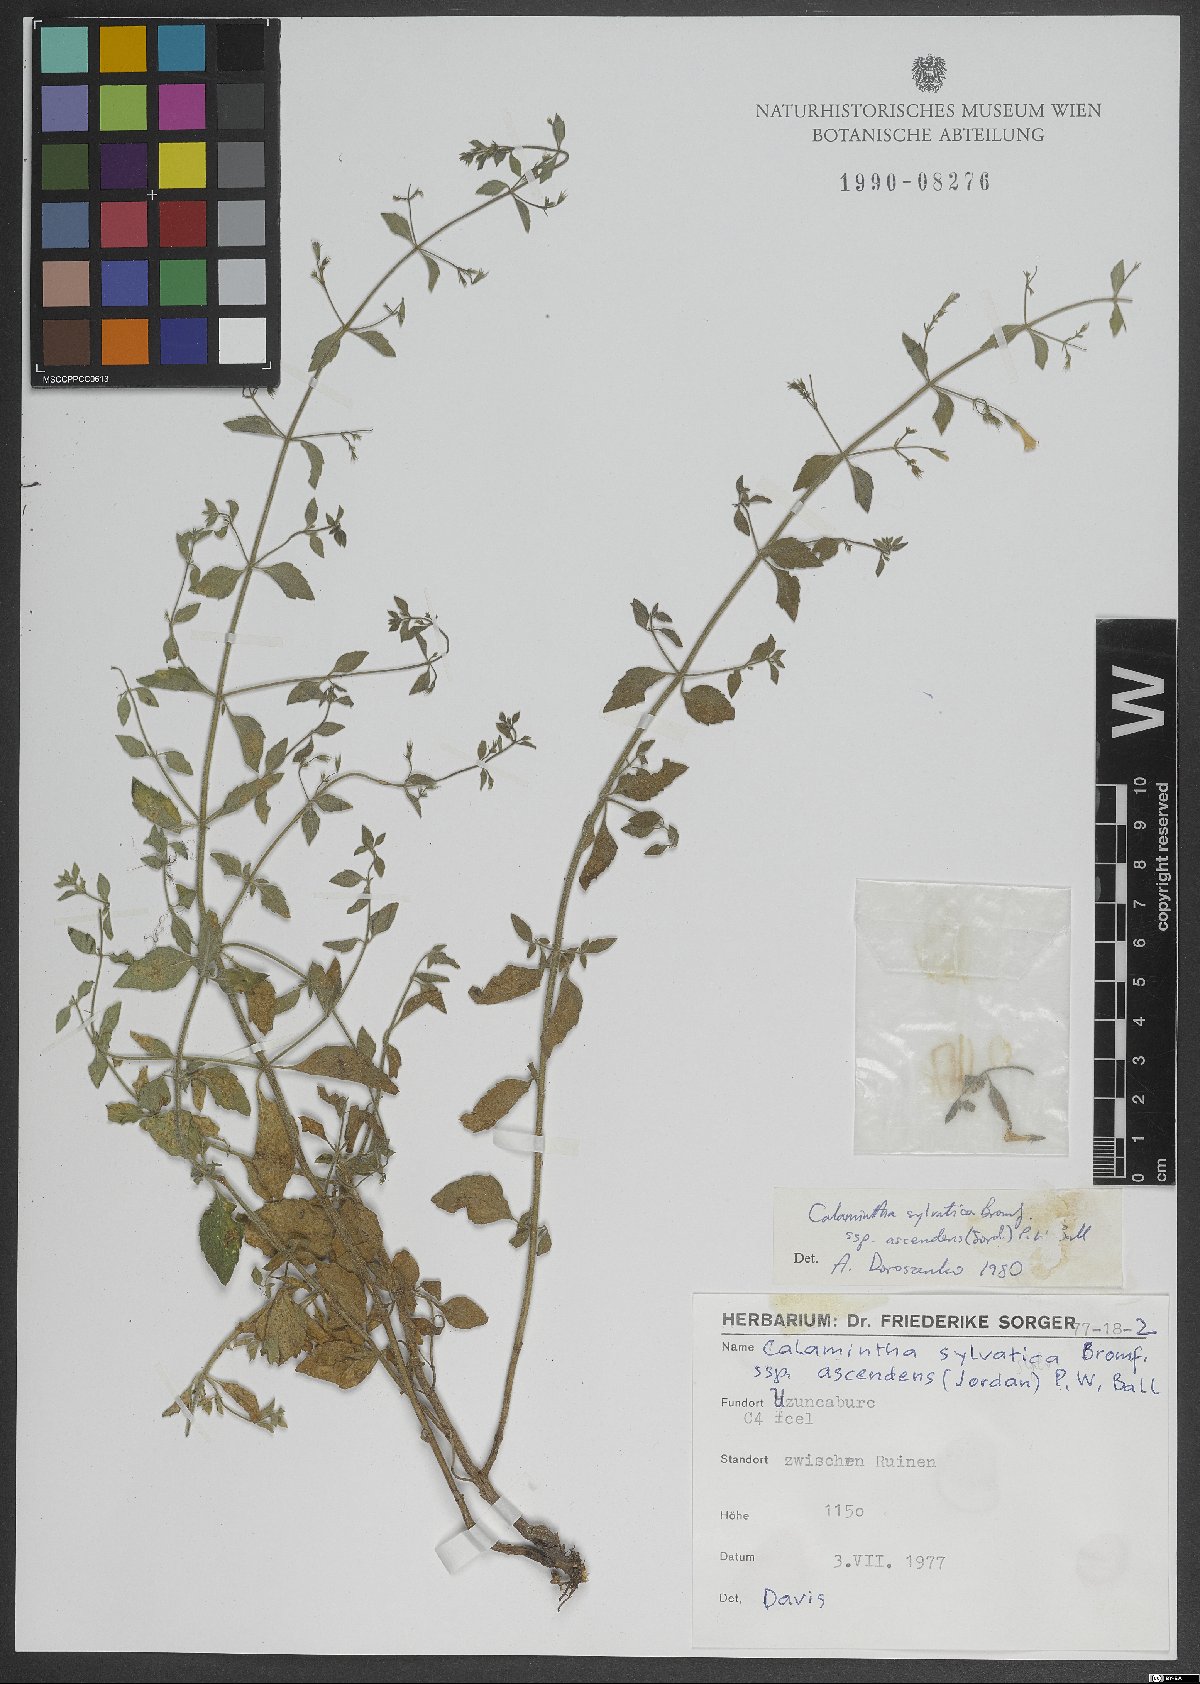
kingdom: Plantae
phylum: Tracheophyta
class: Magnoliopsida
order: Lamiales
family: Lamiaceae
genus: Clinopodium
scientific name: Clinopodium menthifolium
